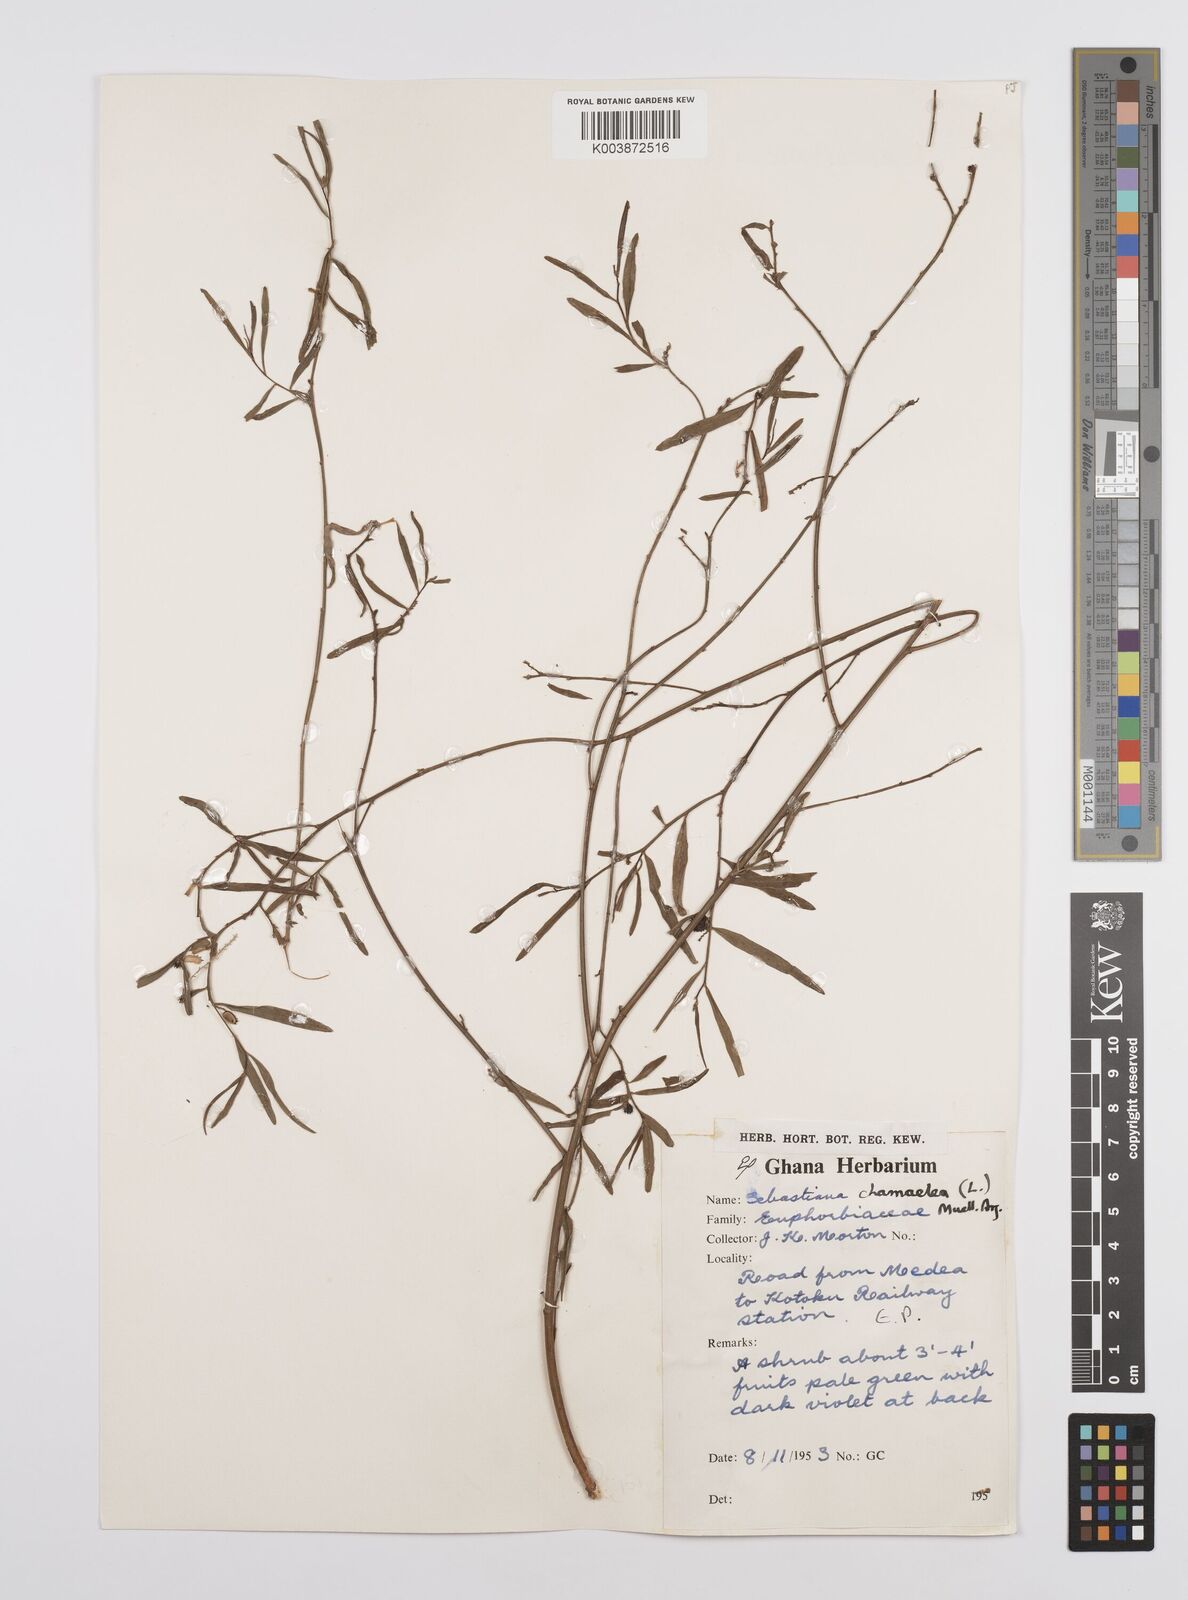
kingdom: Plantae
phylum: Tracheophyta
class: Magnoliopsida
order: Malpighiales
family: Euphorbiaceae
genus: Microstachys
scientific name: Microstachys chamaelea
